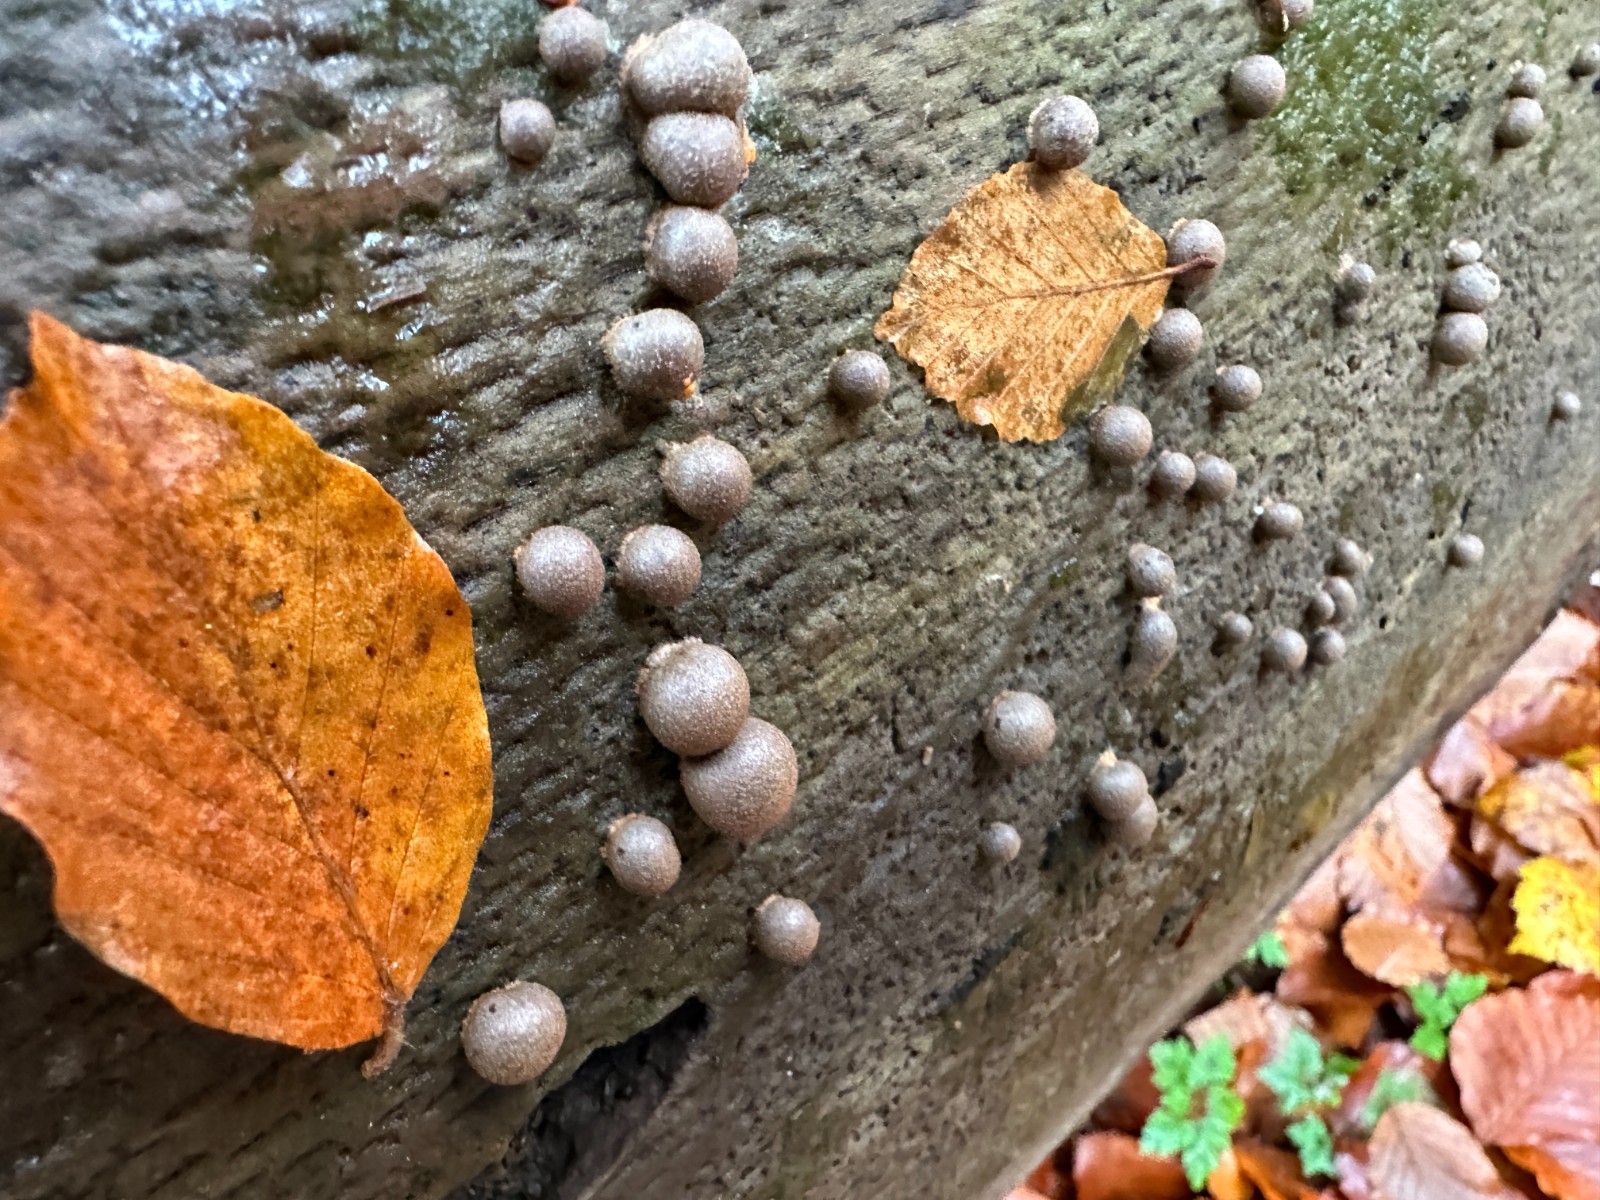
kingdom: Protozoa
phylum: Mycetozoa
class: Myxomycetes
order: Cribrariales
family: Tubiferaceae
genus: Lycogala
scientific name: Lycogala epidendrum
